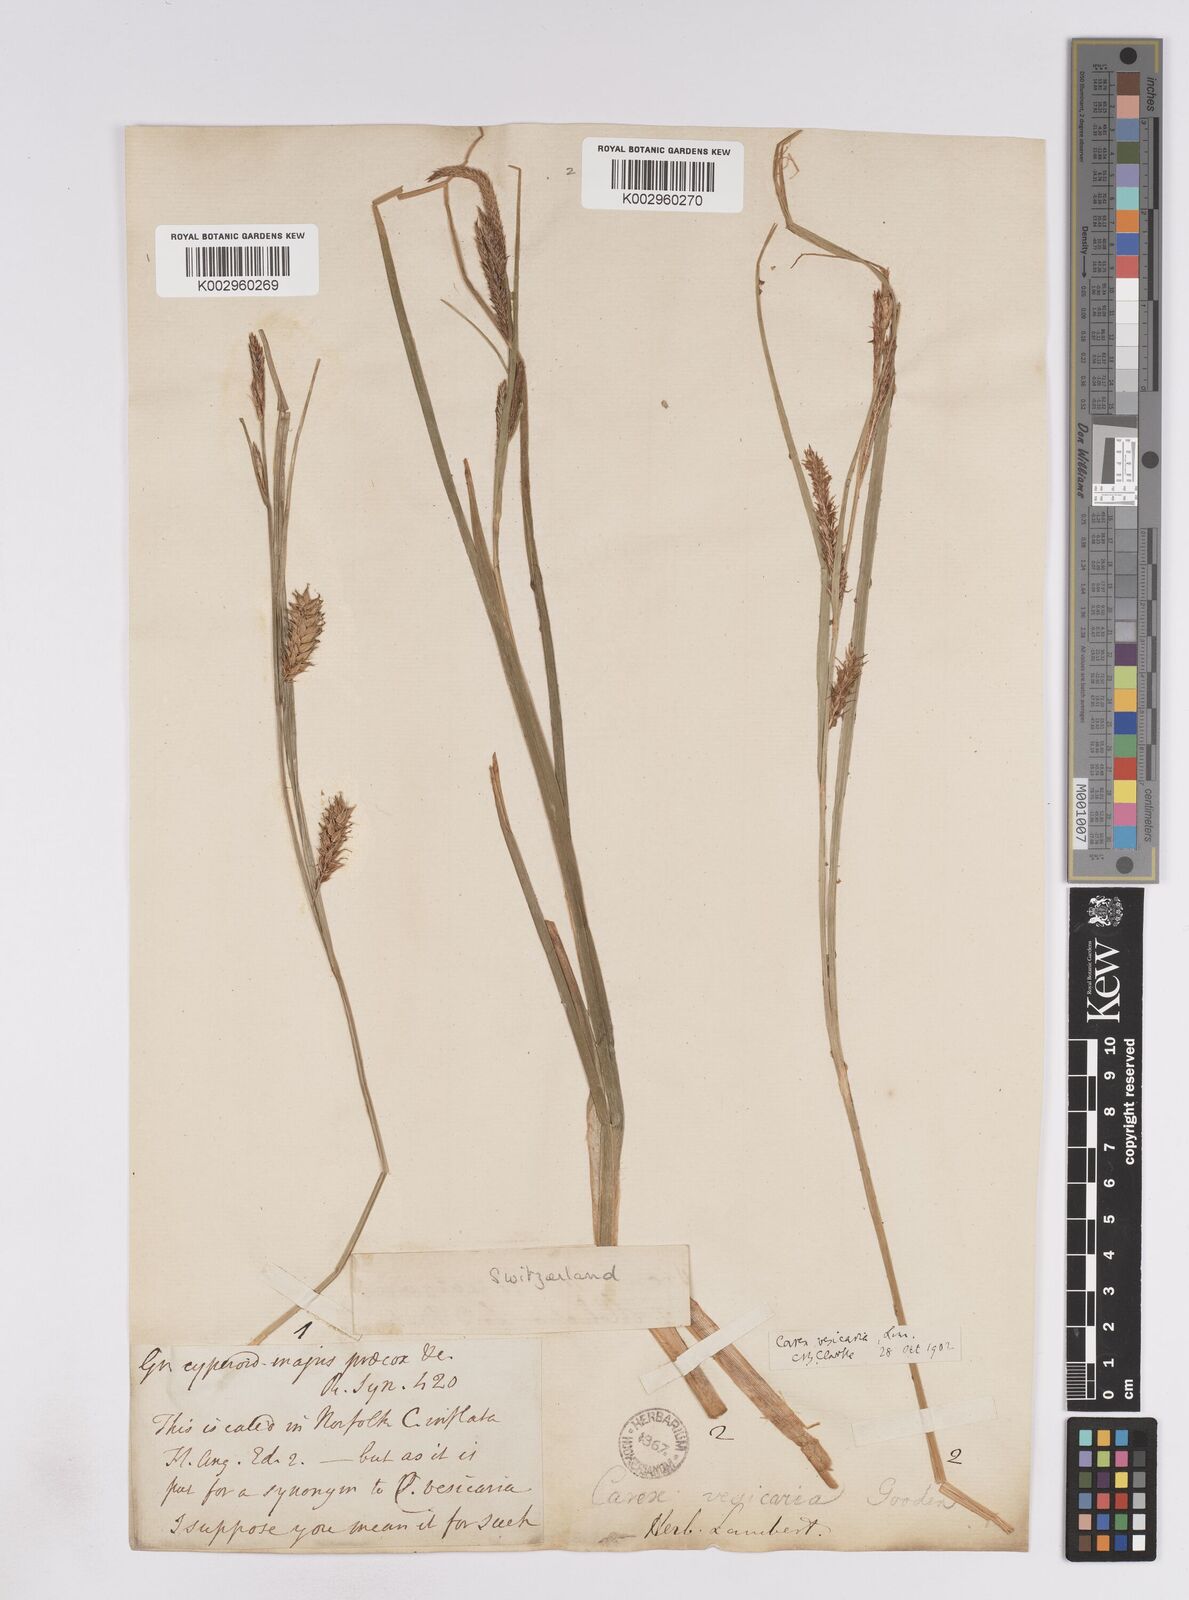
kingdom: Plantae
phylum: Tracheophyta
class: Liliopsida
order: Poales
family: Cyperaceae
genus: Carex
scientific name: Carex vesicaria
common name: Bladder-sedge
